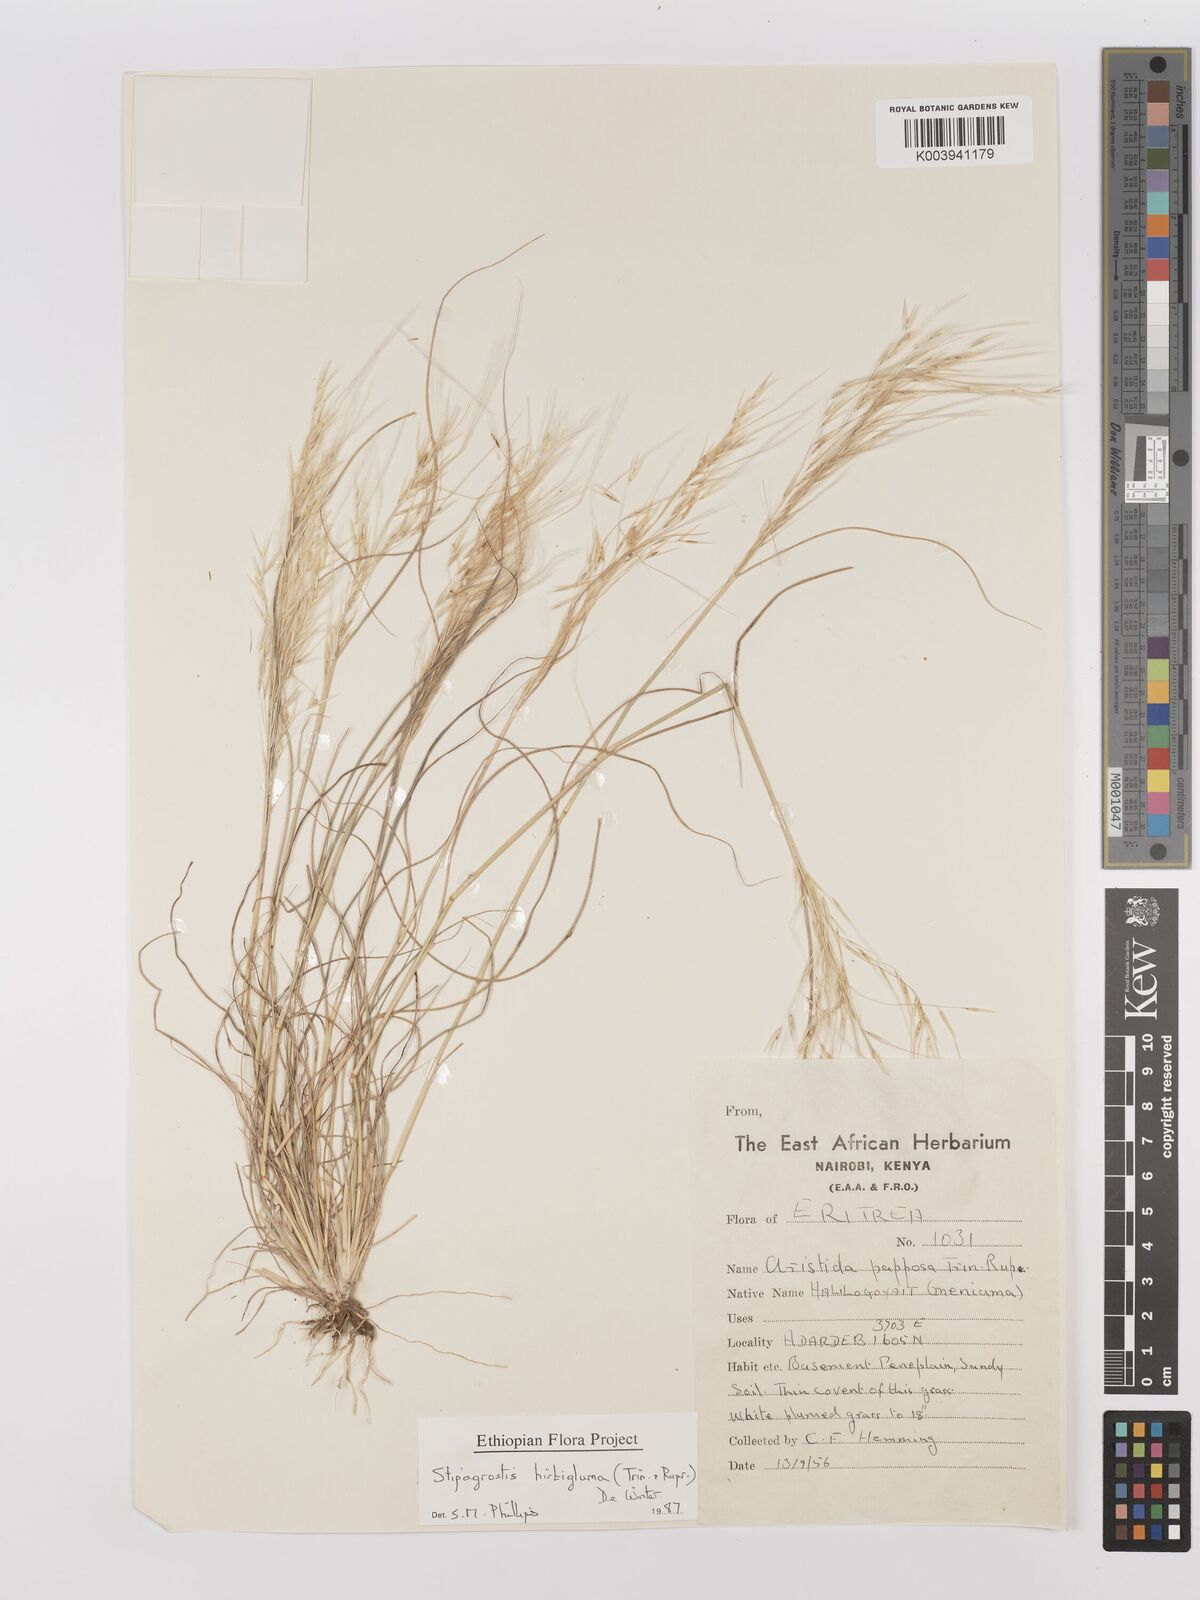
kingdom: Plantae
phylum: Tracheophyta
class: Liliopsida
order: Poales
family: Poaceae
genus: Stipagrostis
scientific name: Stipagrostis hirtigluma
